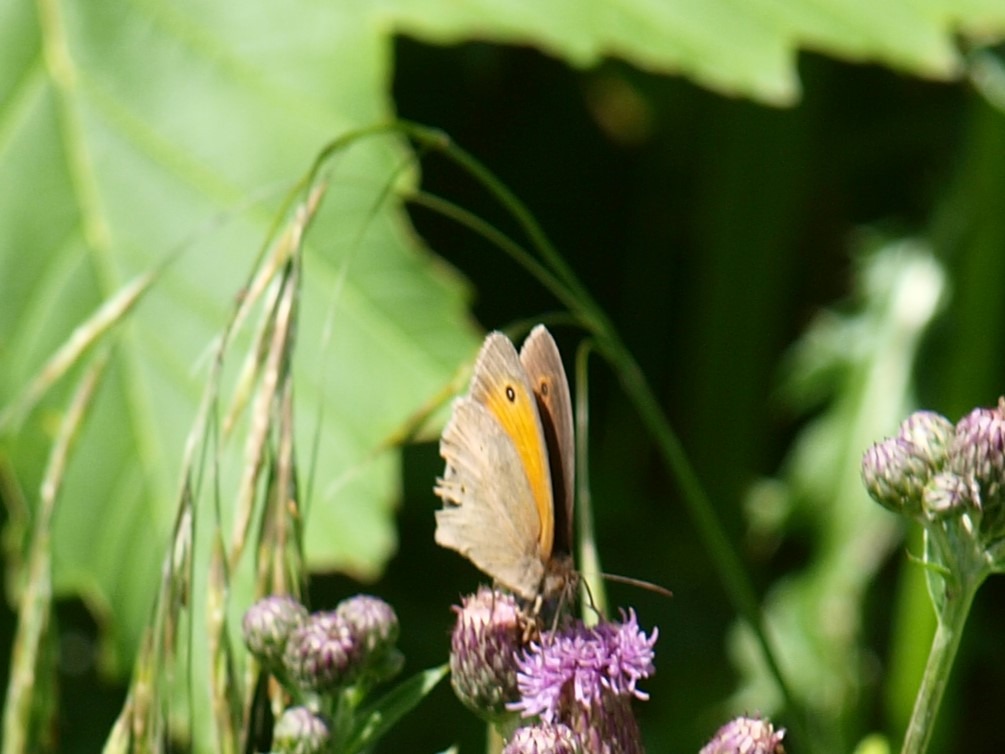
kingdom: Animalia
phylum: Arthropoda
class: Insecta
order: Lepidoptera
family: Nymphalidae
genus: Maniola
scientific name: Maniola jurtina
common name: Græsrandøje
